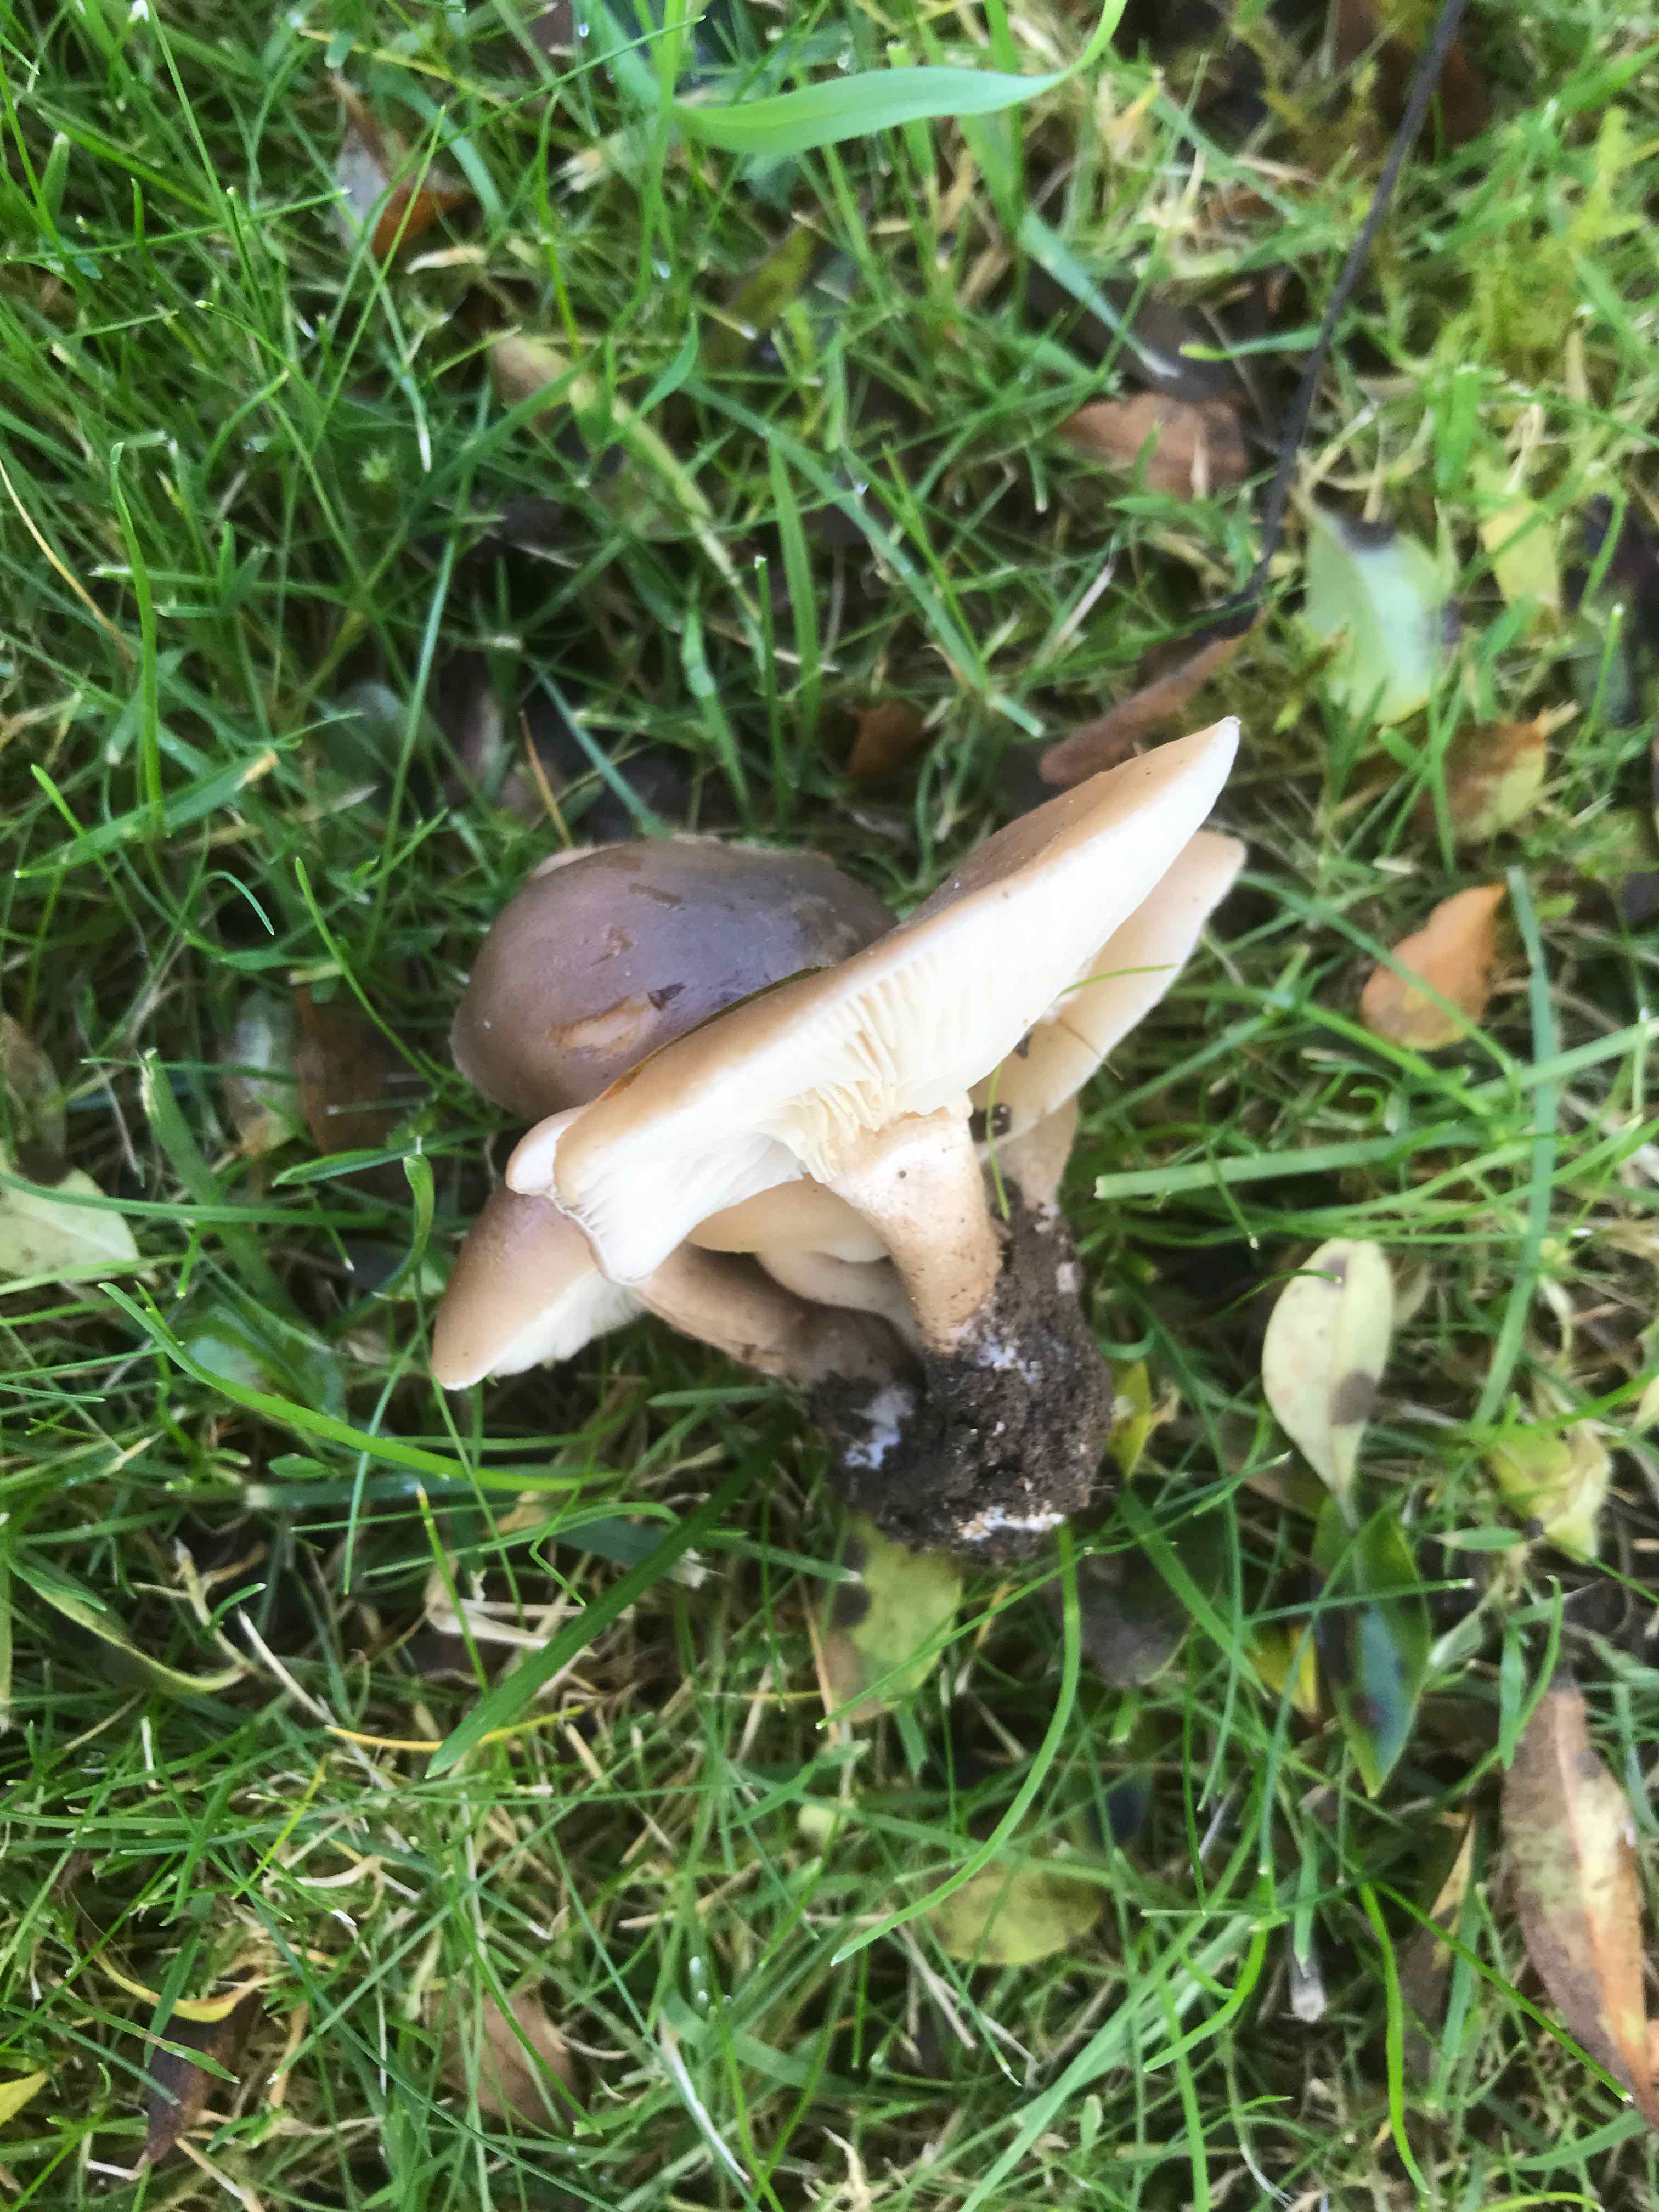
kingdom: Fungi
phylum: Basidiomycota
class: Agaricomycetes
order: Agaricales
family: Lyophyllaceae
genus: Lyophyllum
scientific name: Lyophyllum decastes
